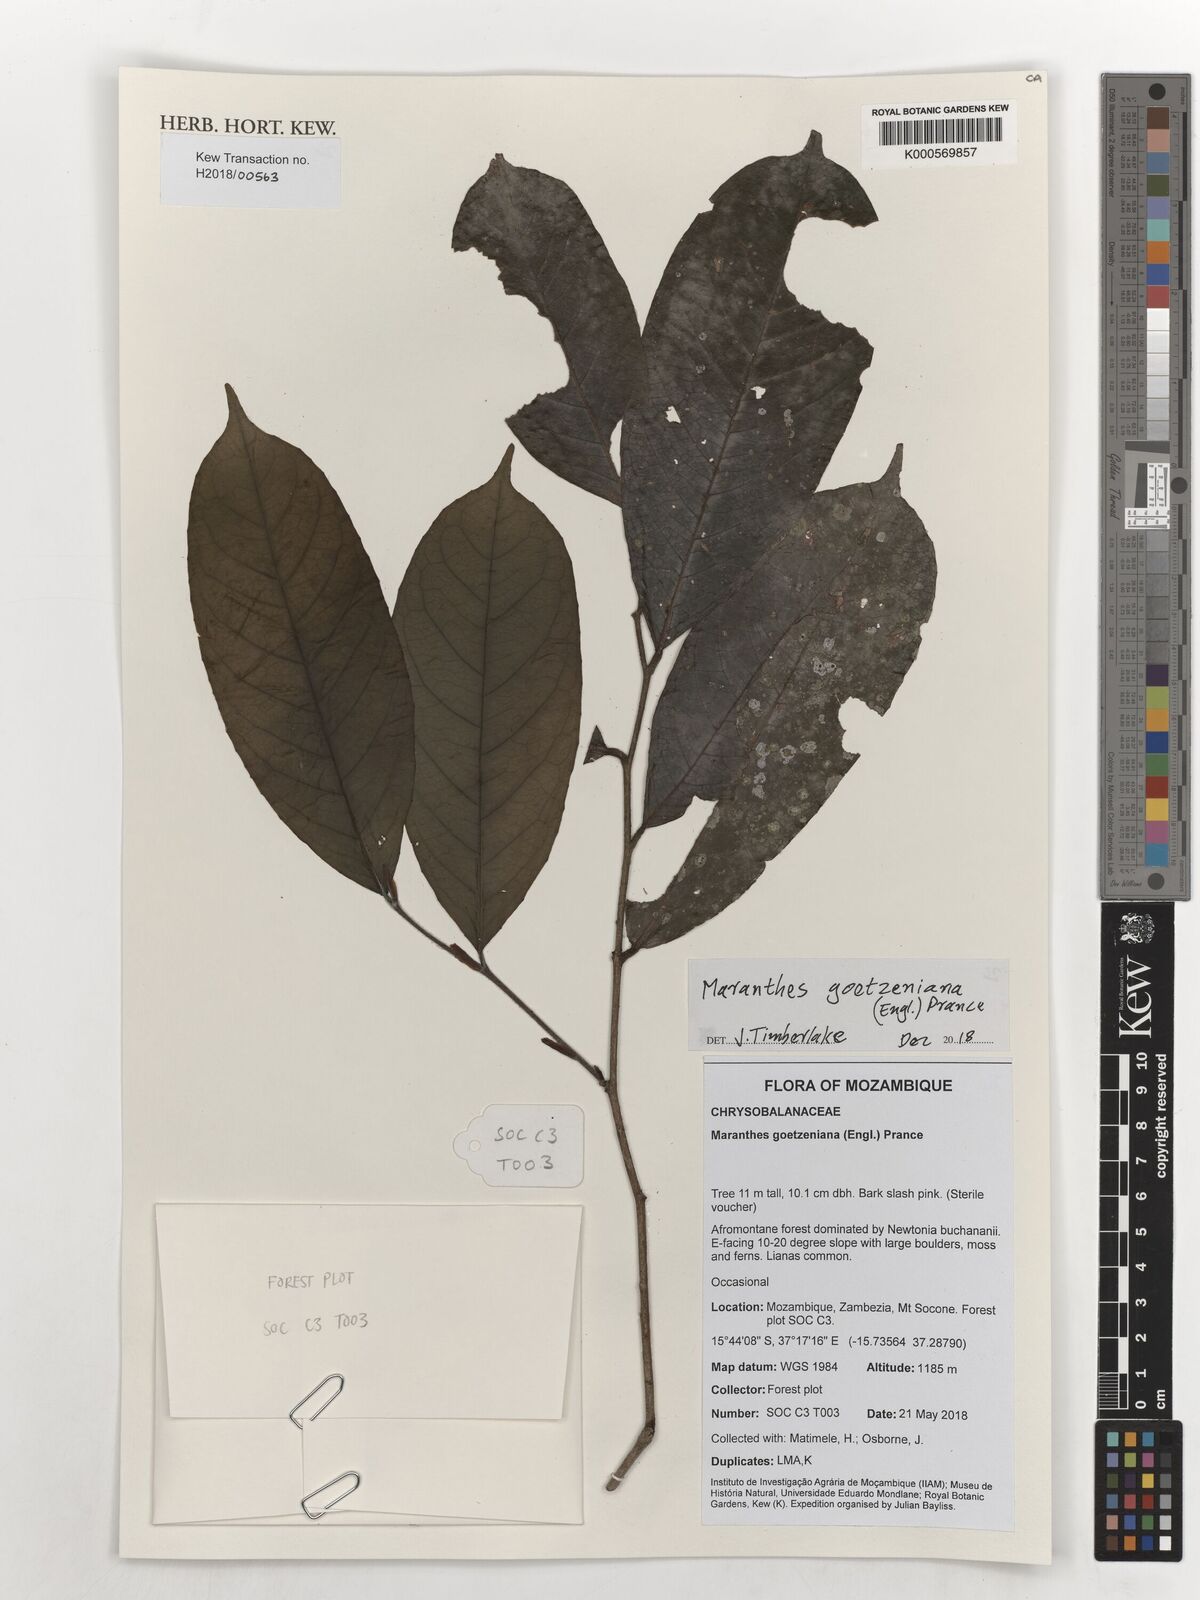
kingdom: Plantae
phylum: Tracheophyta
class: Magnoliopsida
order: Malpighiales
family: Chrysobalanaceae
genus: Maranthes
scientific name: Maranthes goetzeniana
